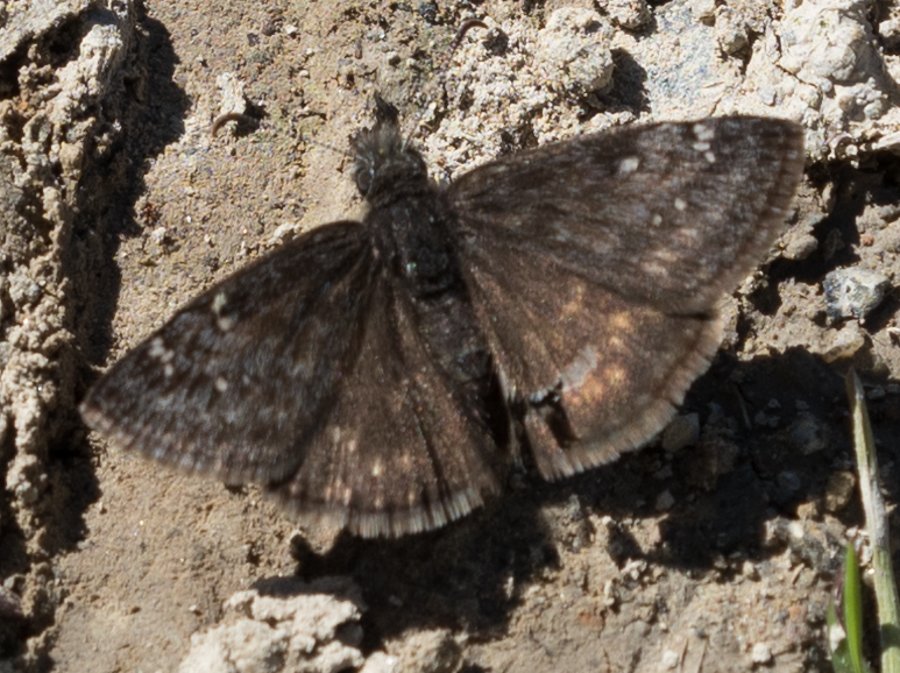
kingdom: Animalia
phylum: Arthropoda
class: Insecta
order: Lepidoptera
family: Hesperiidae
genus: Gesta
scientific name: Gesta
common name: Persius Duskywing
